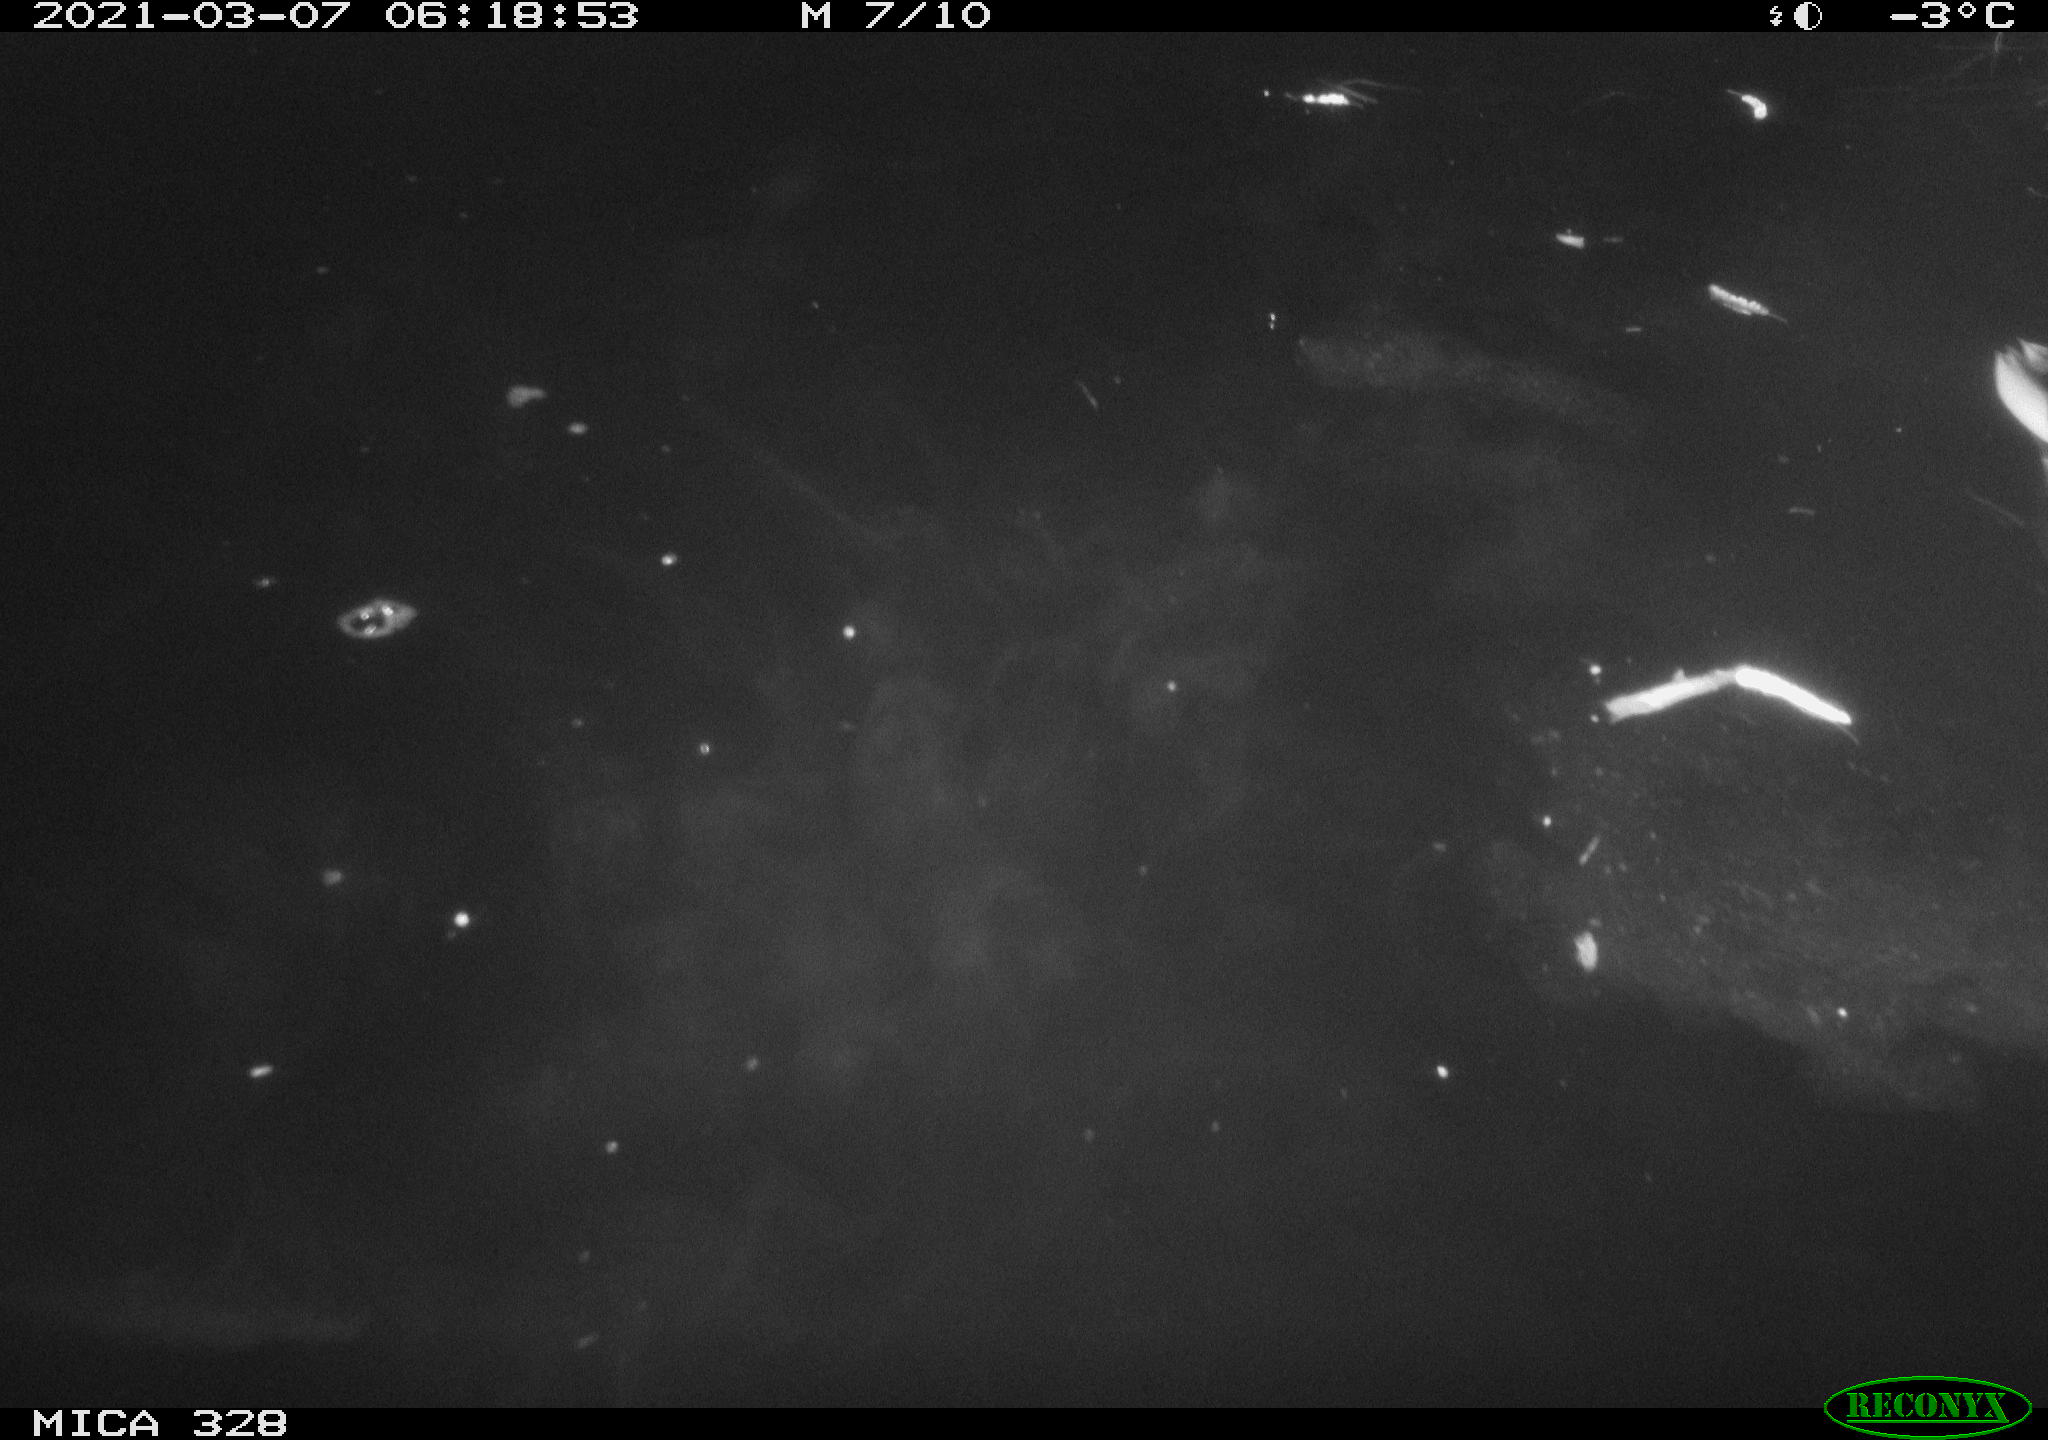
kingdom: Animalia
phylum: Chordata
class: Aves
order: Anseriformes
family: Anatidae
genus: Anas
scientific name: Anas platyrhynchos
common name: Mallard
